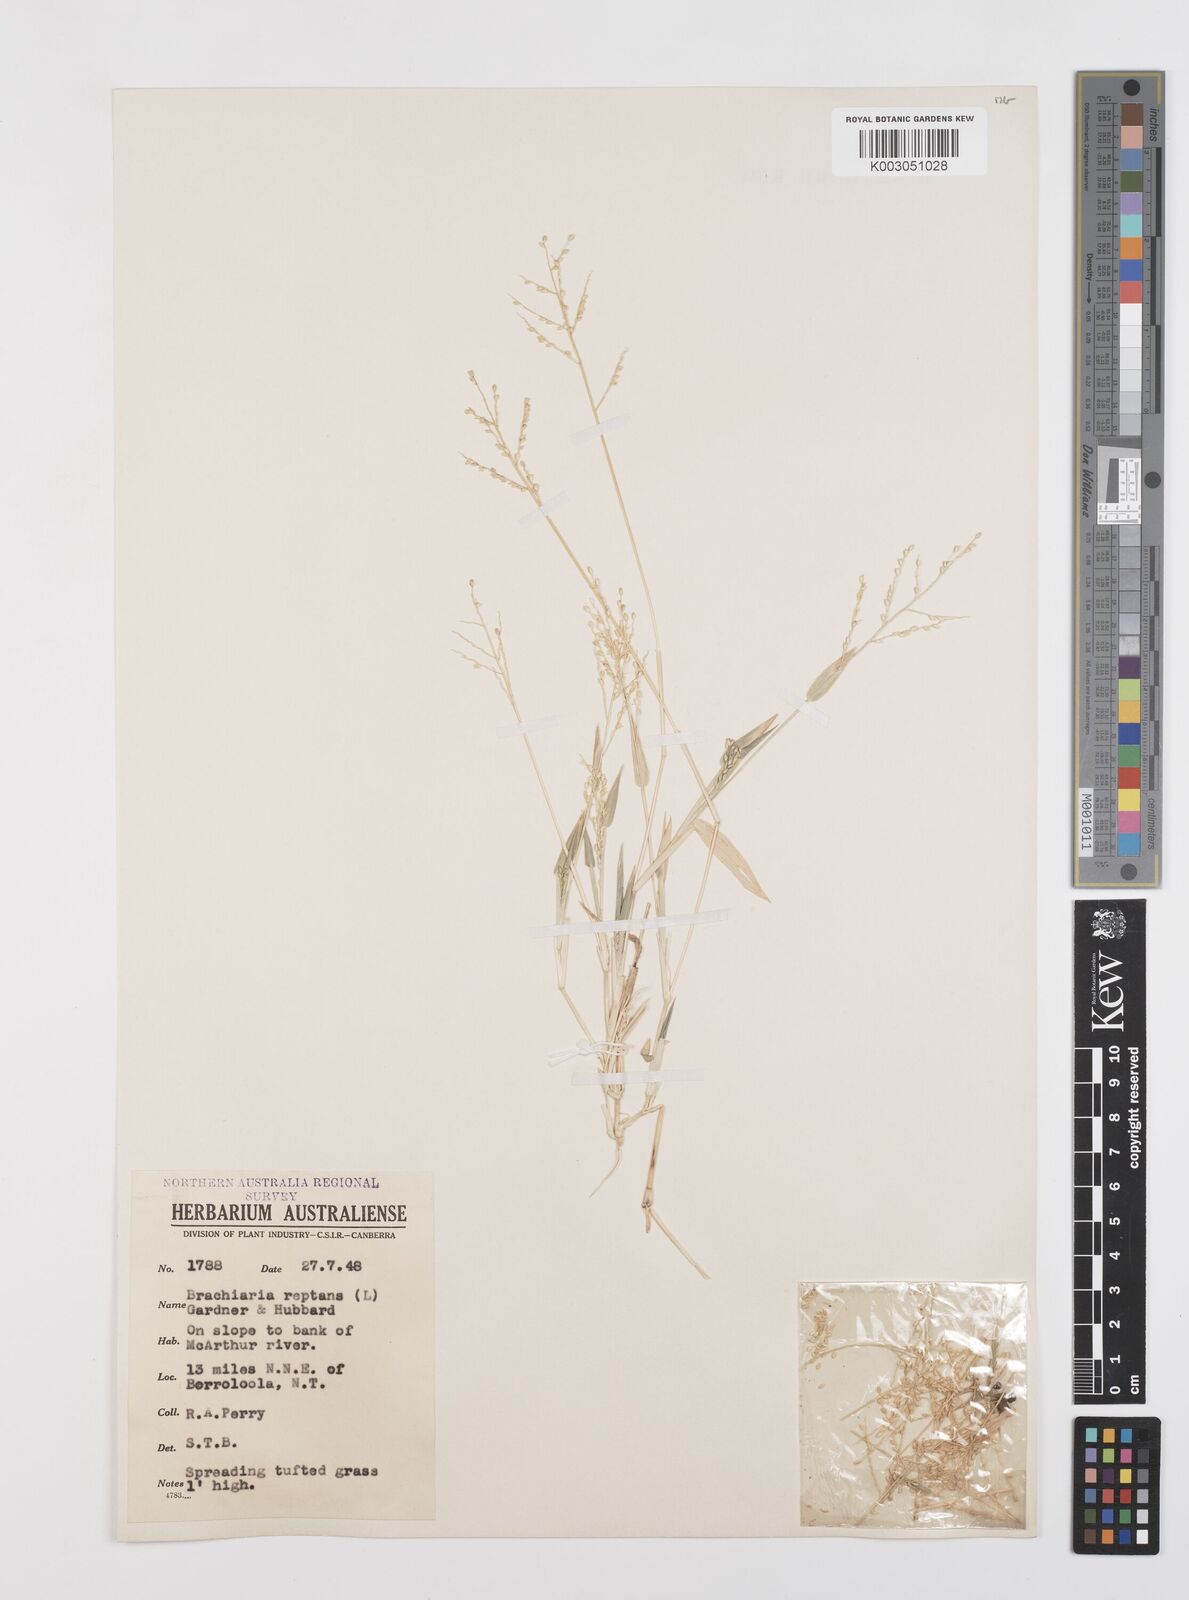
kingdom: Plantae
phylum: Tracheophyta
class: Liliopsida
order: Poales
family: Poaceae
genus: Urochloa
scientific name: Urochloa reptans
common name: Sprawling signalgrass
